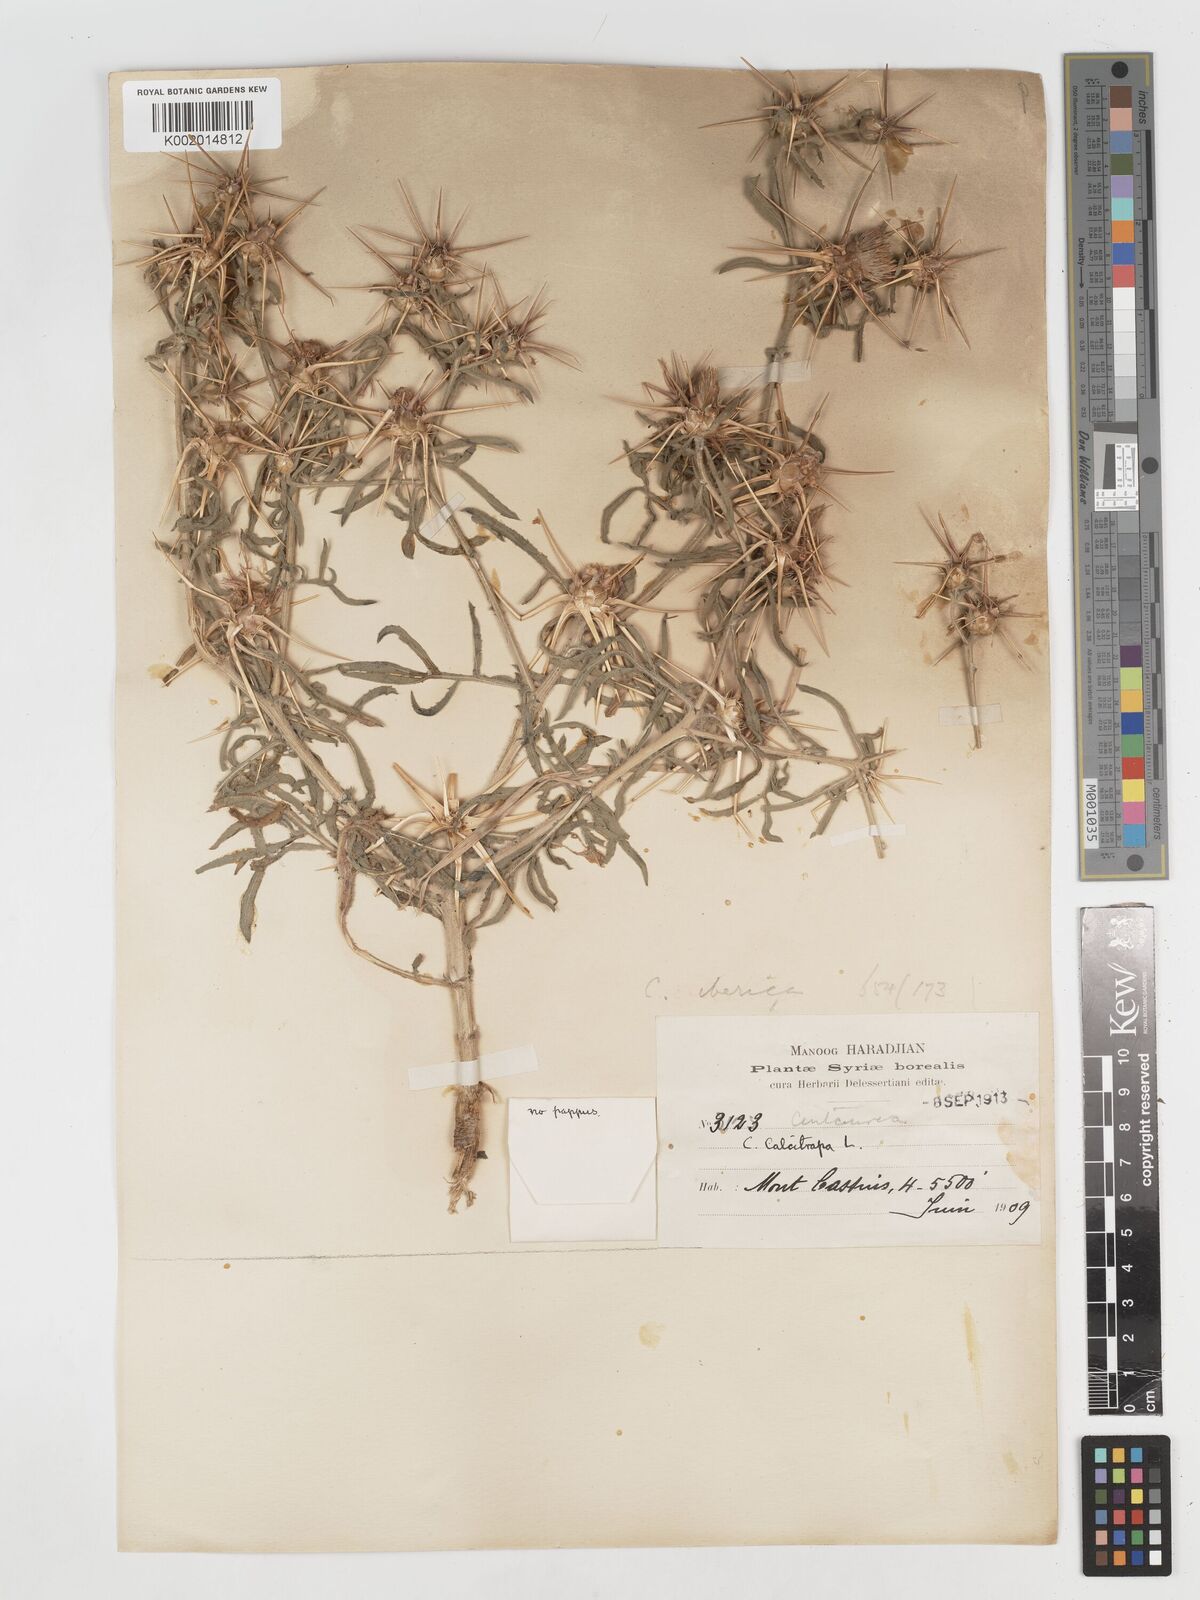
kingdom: Plantae
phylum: Tracheophyta
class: Magnoliopsida
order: Asterales
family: Asteraceae
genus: Centaurea
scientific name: Centaurea iberica
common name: Iberian knapweed
